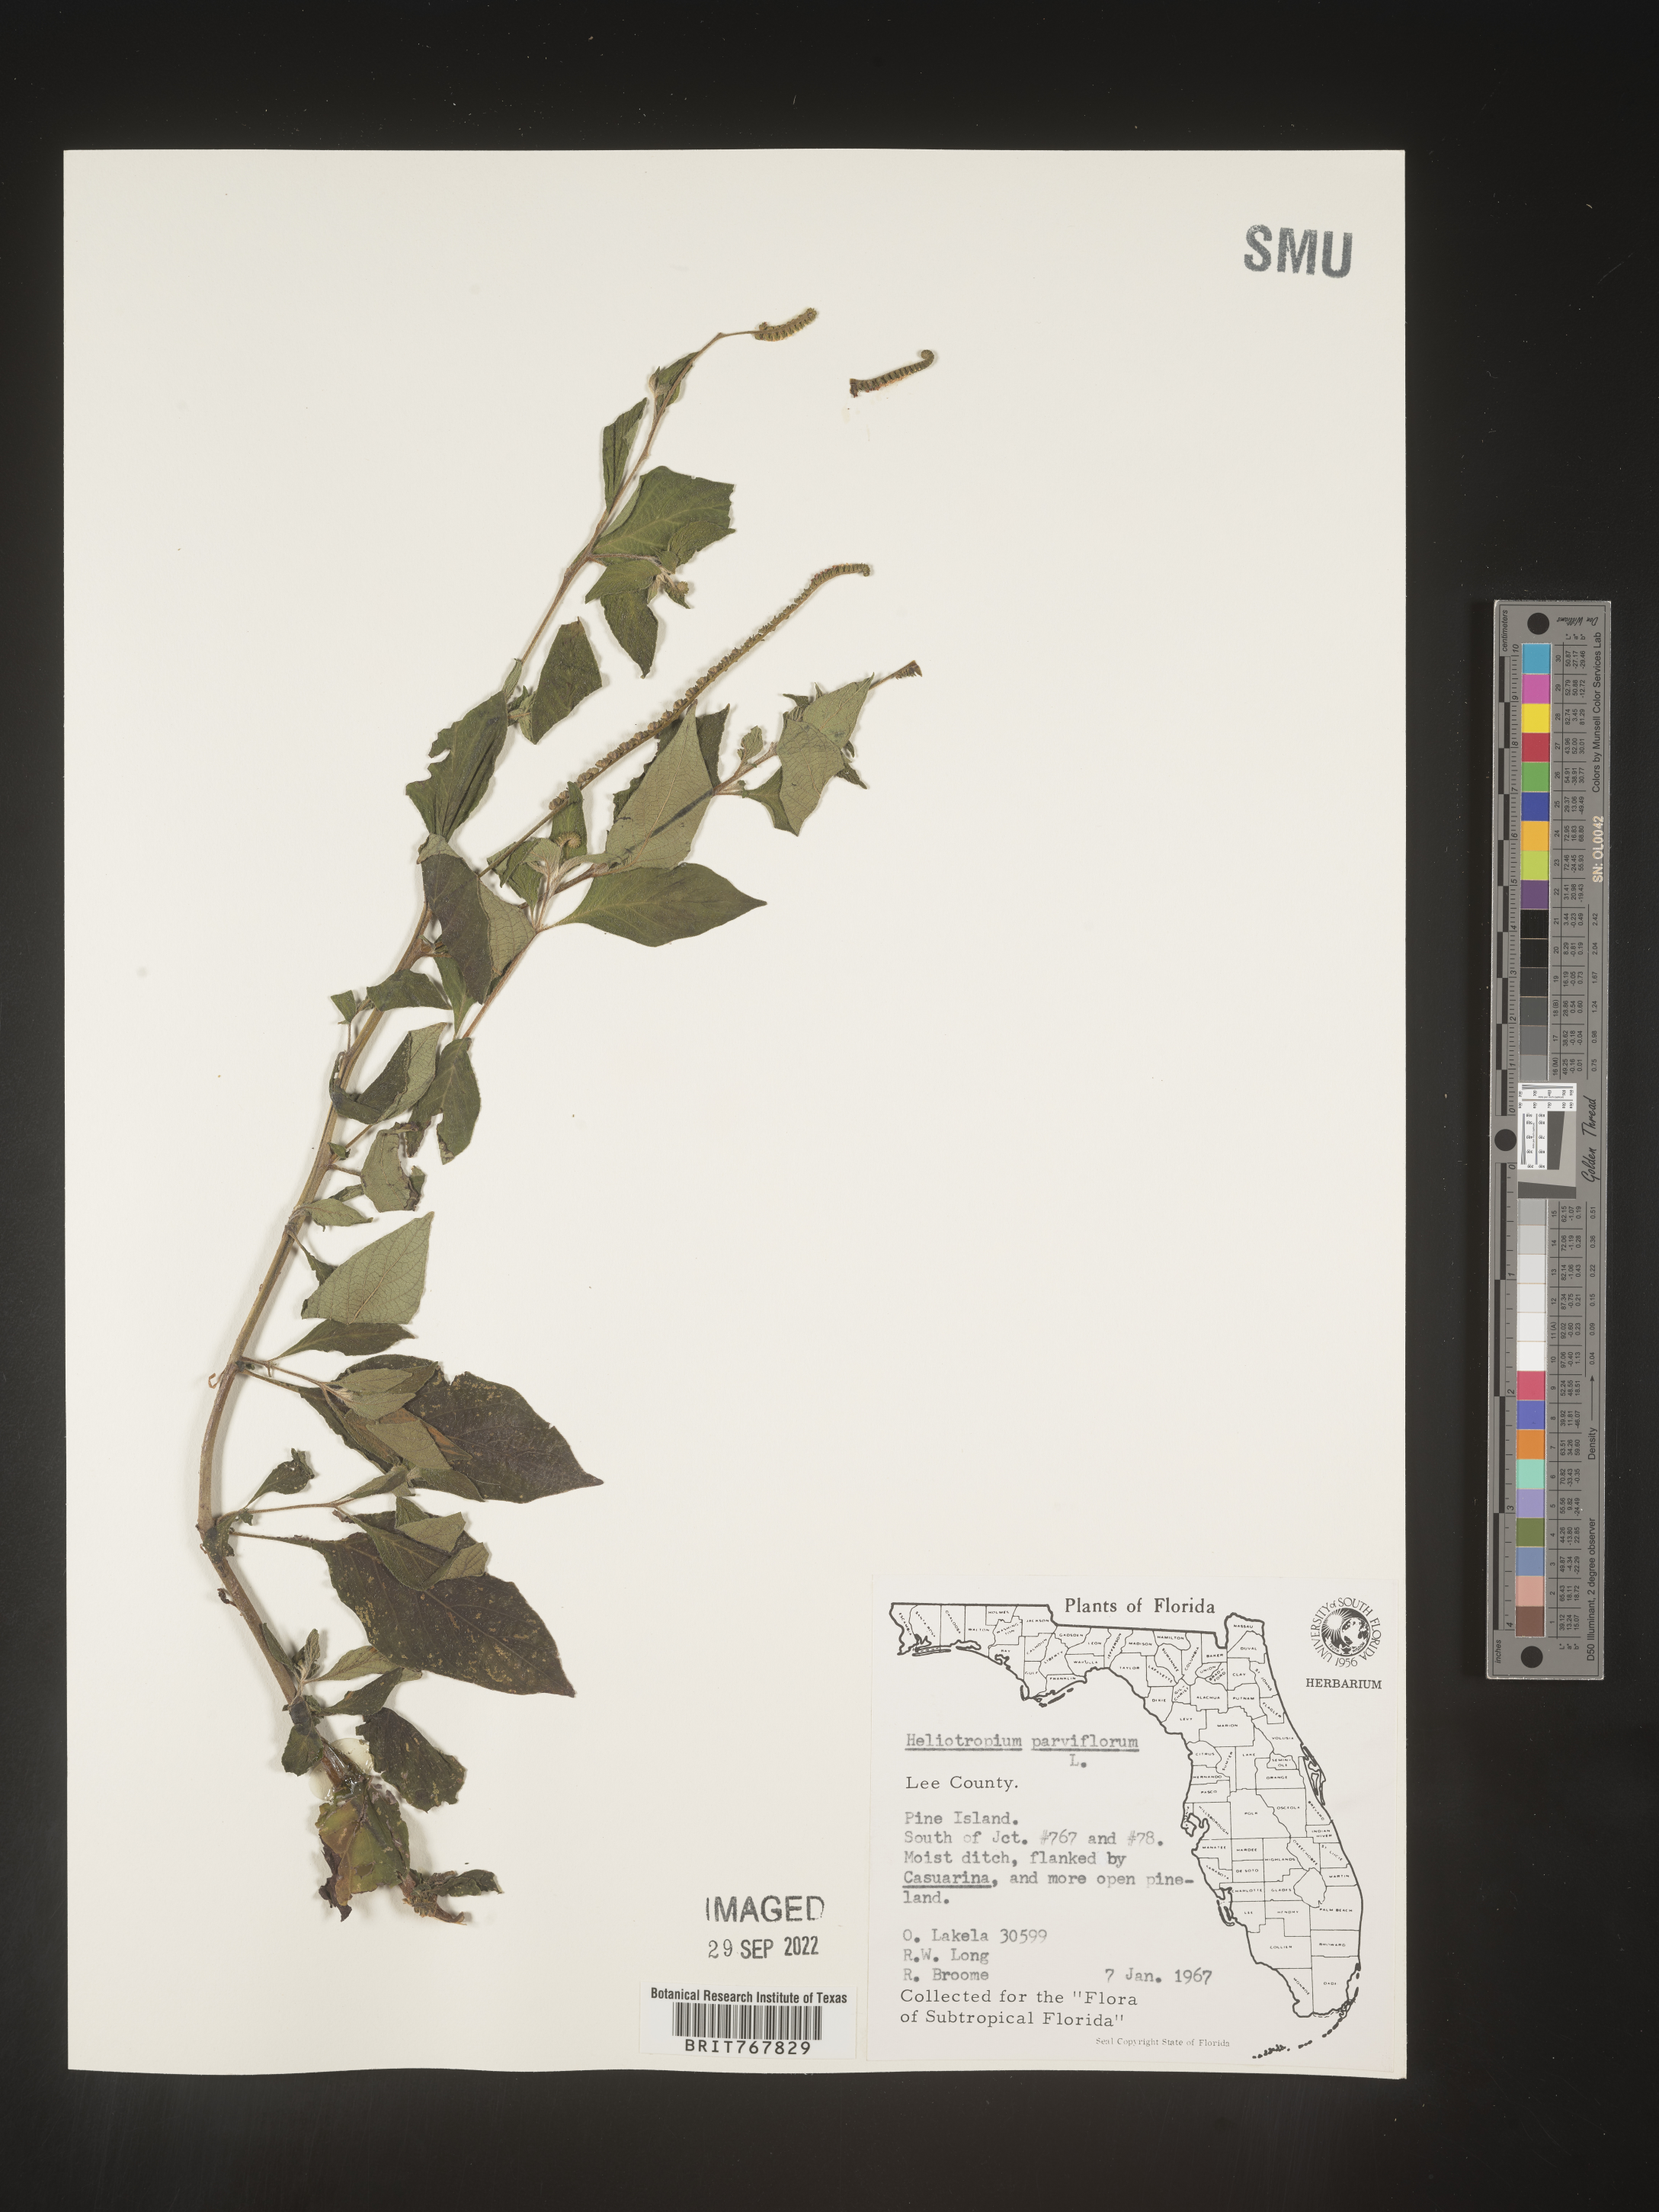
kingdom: Plantae
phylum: Tracheophyta
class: Magnoliopsida
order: Boraginales
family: Heliotropiaceae
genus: Heliotropium
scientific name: Heliotropium
